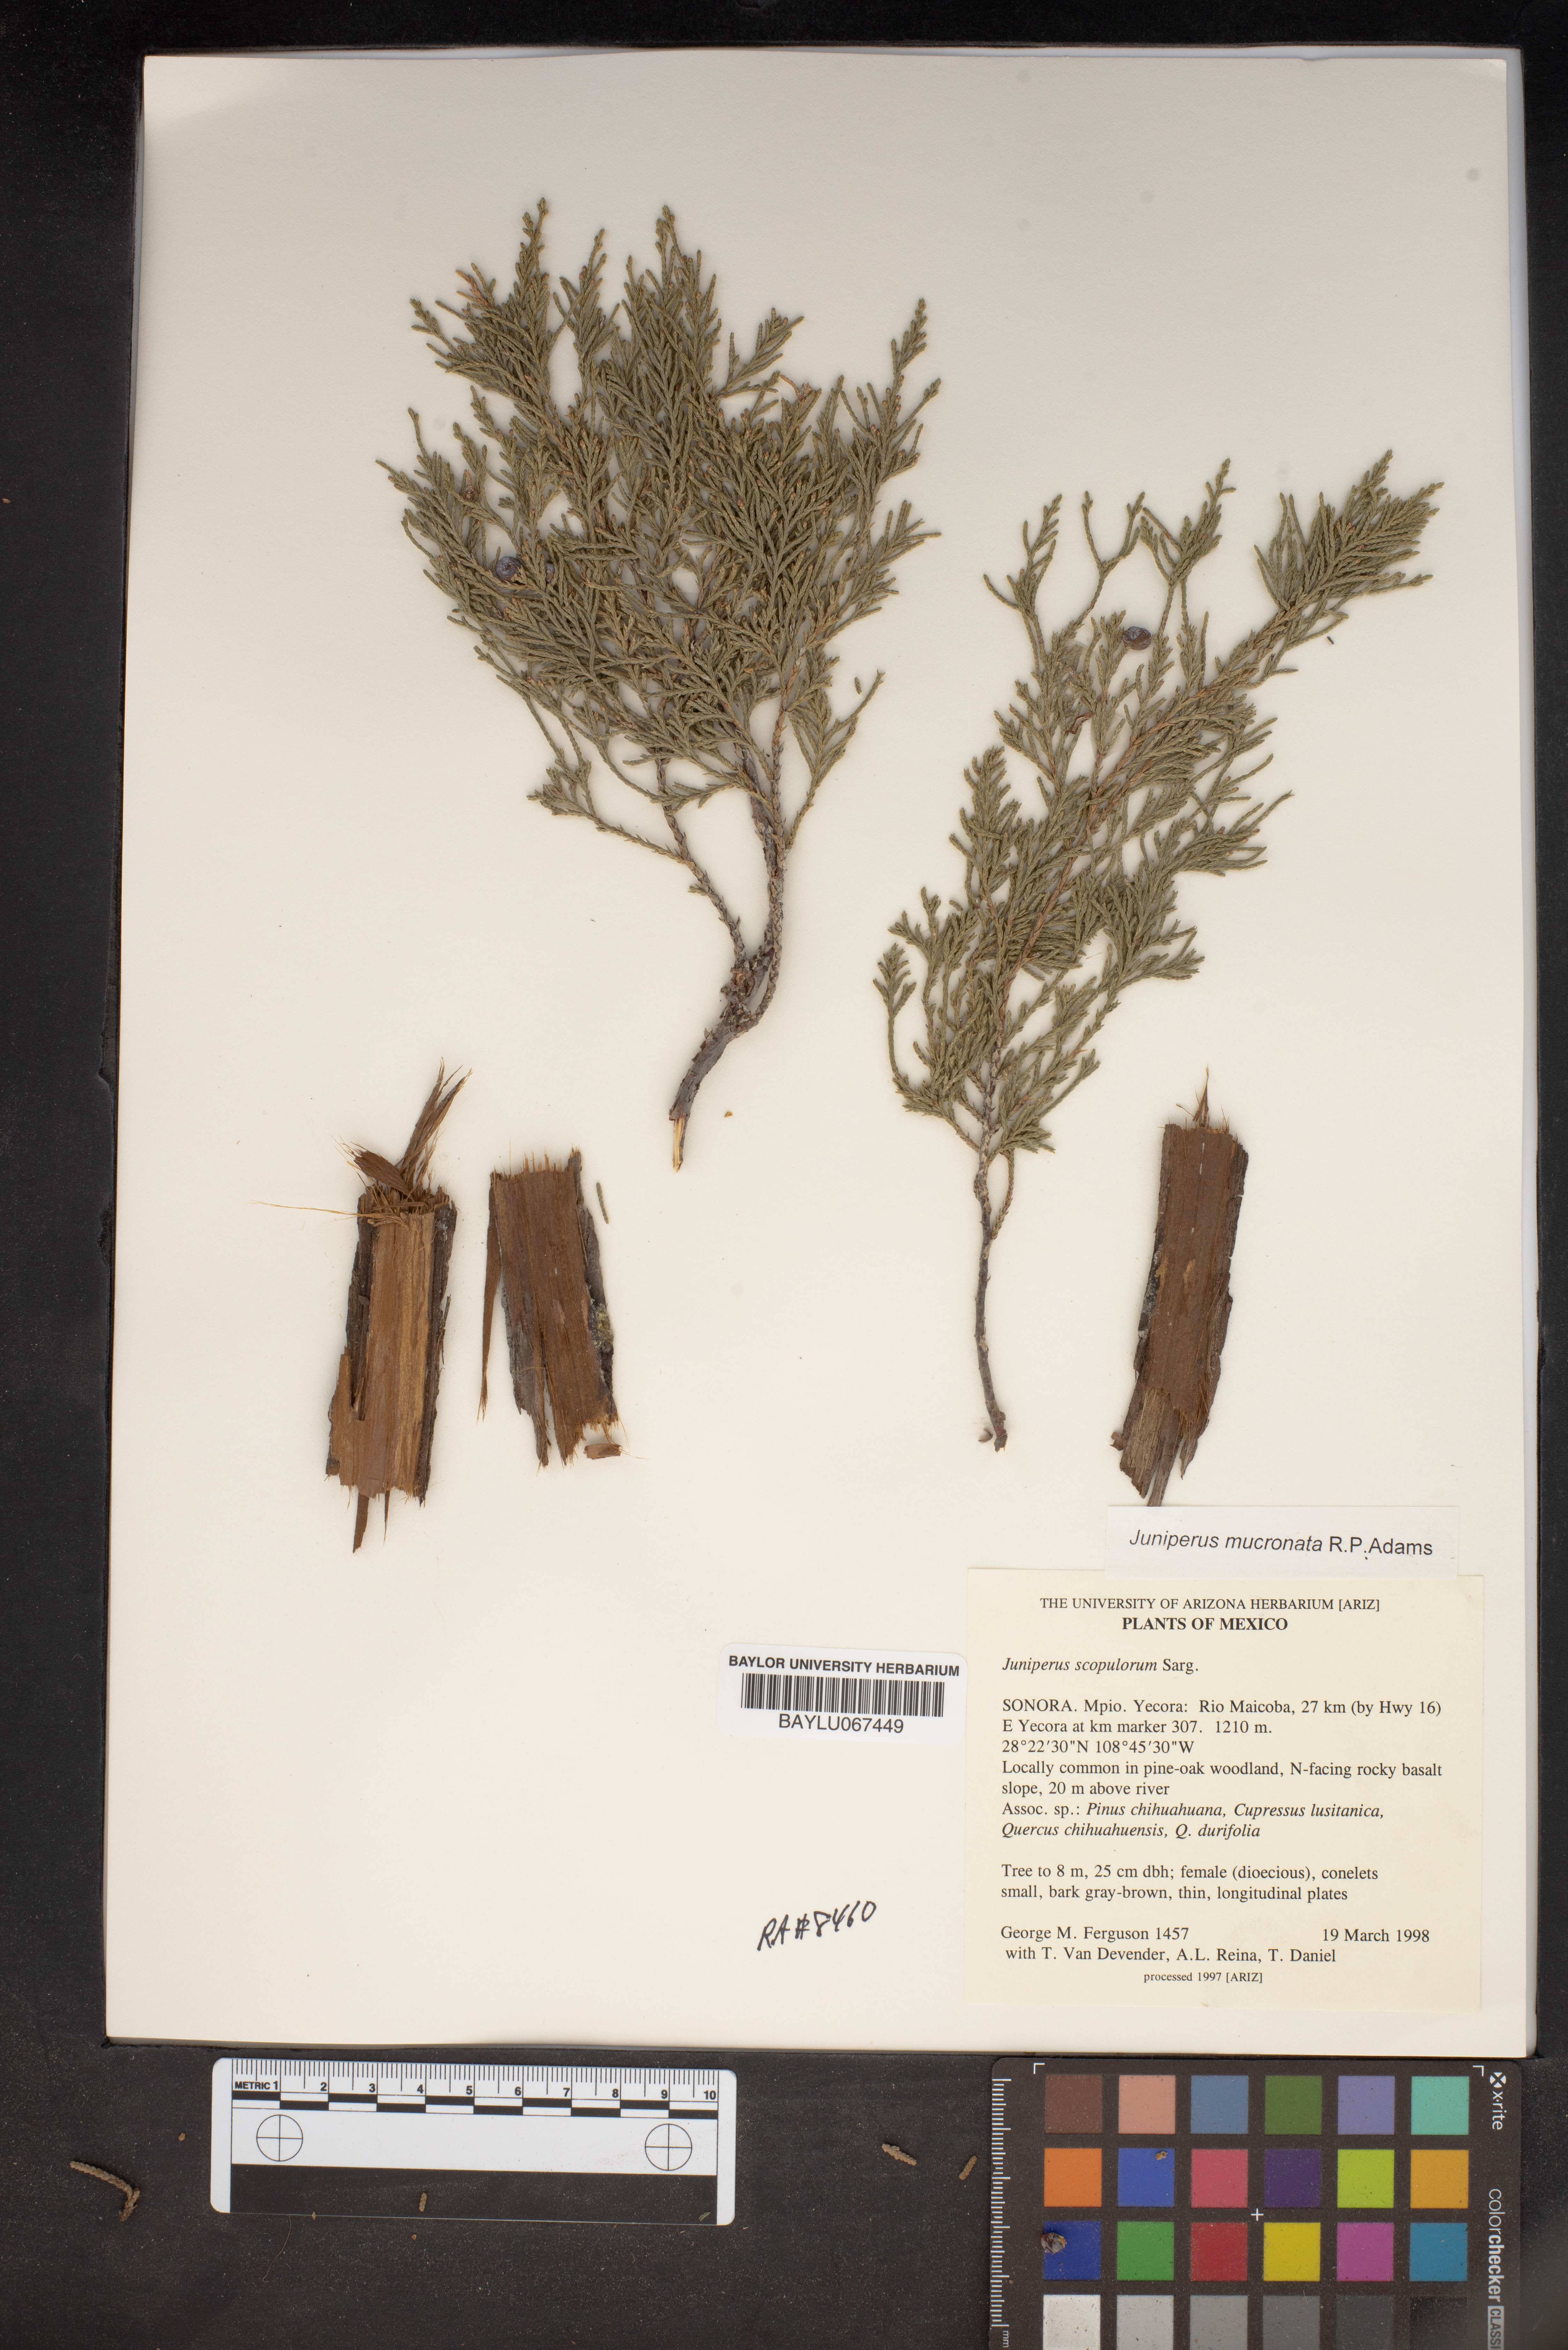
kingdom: Plantae
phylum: Tracheophyta
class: Pinopsida
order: Pinales
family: Cupressaceae
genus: Juniperus
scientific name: Juniperus scopulorum
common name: Rocky mountain juniper
